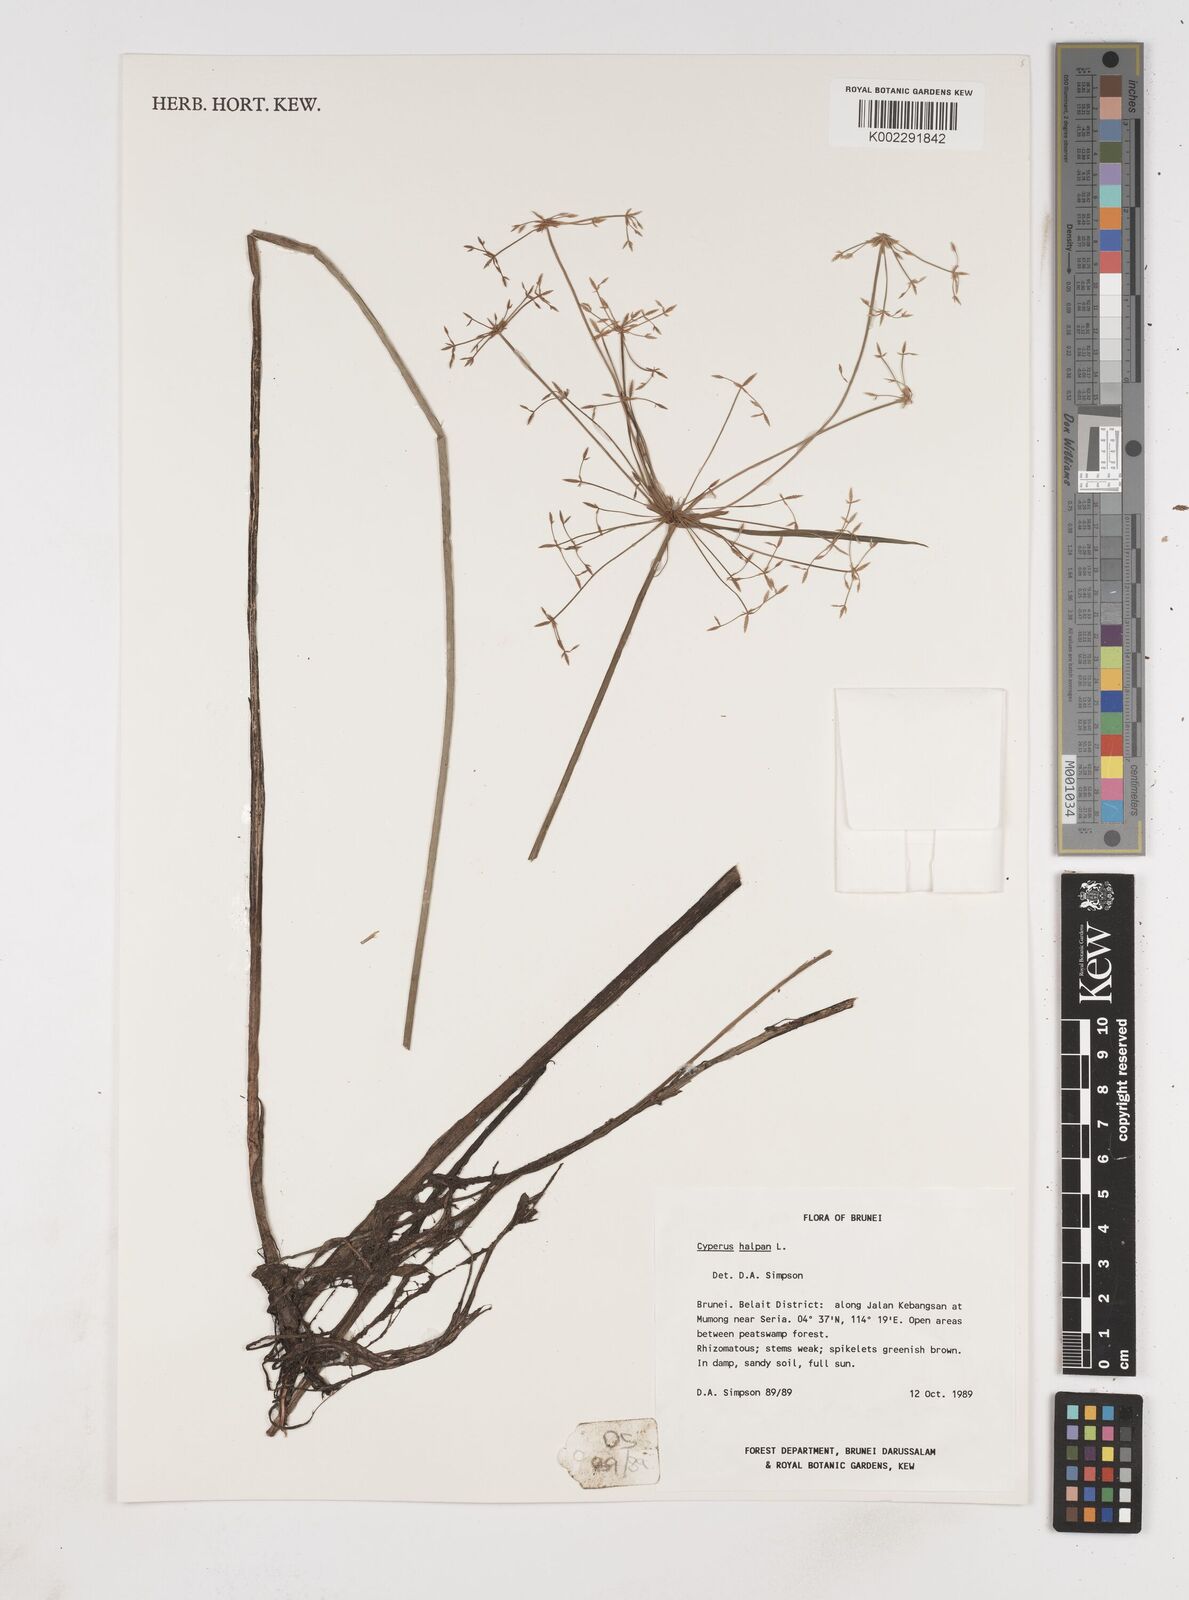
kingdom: Plantae
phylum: Tracheophyta
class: Liliopsida
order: Poales
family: Cyperaceae
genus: Cyperus
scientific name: Cyperus haspan
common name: Haspan flatsedge
